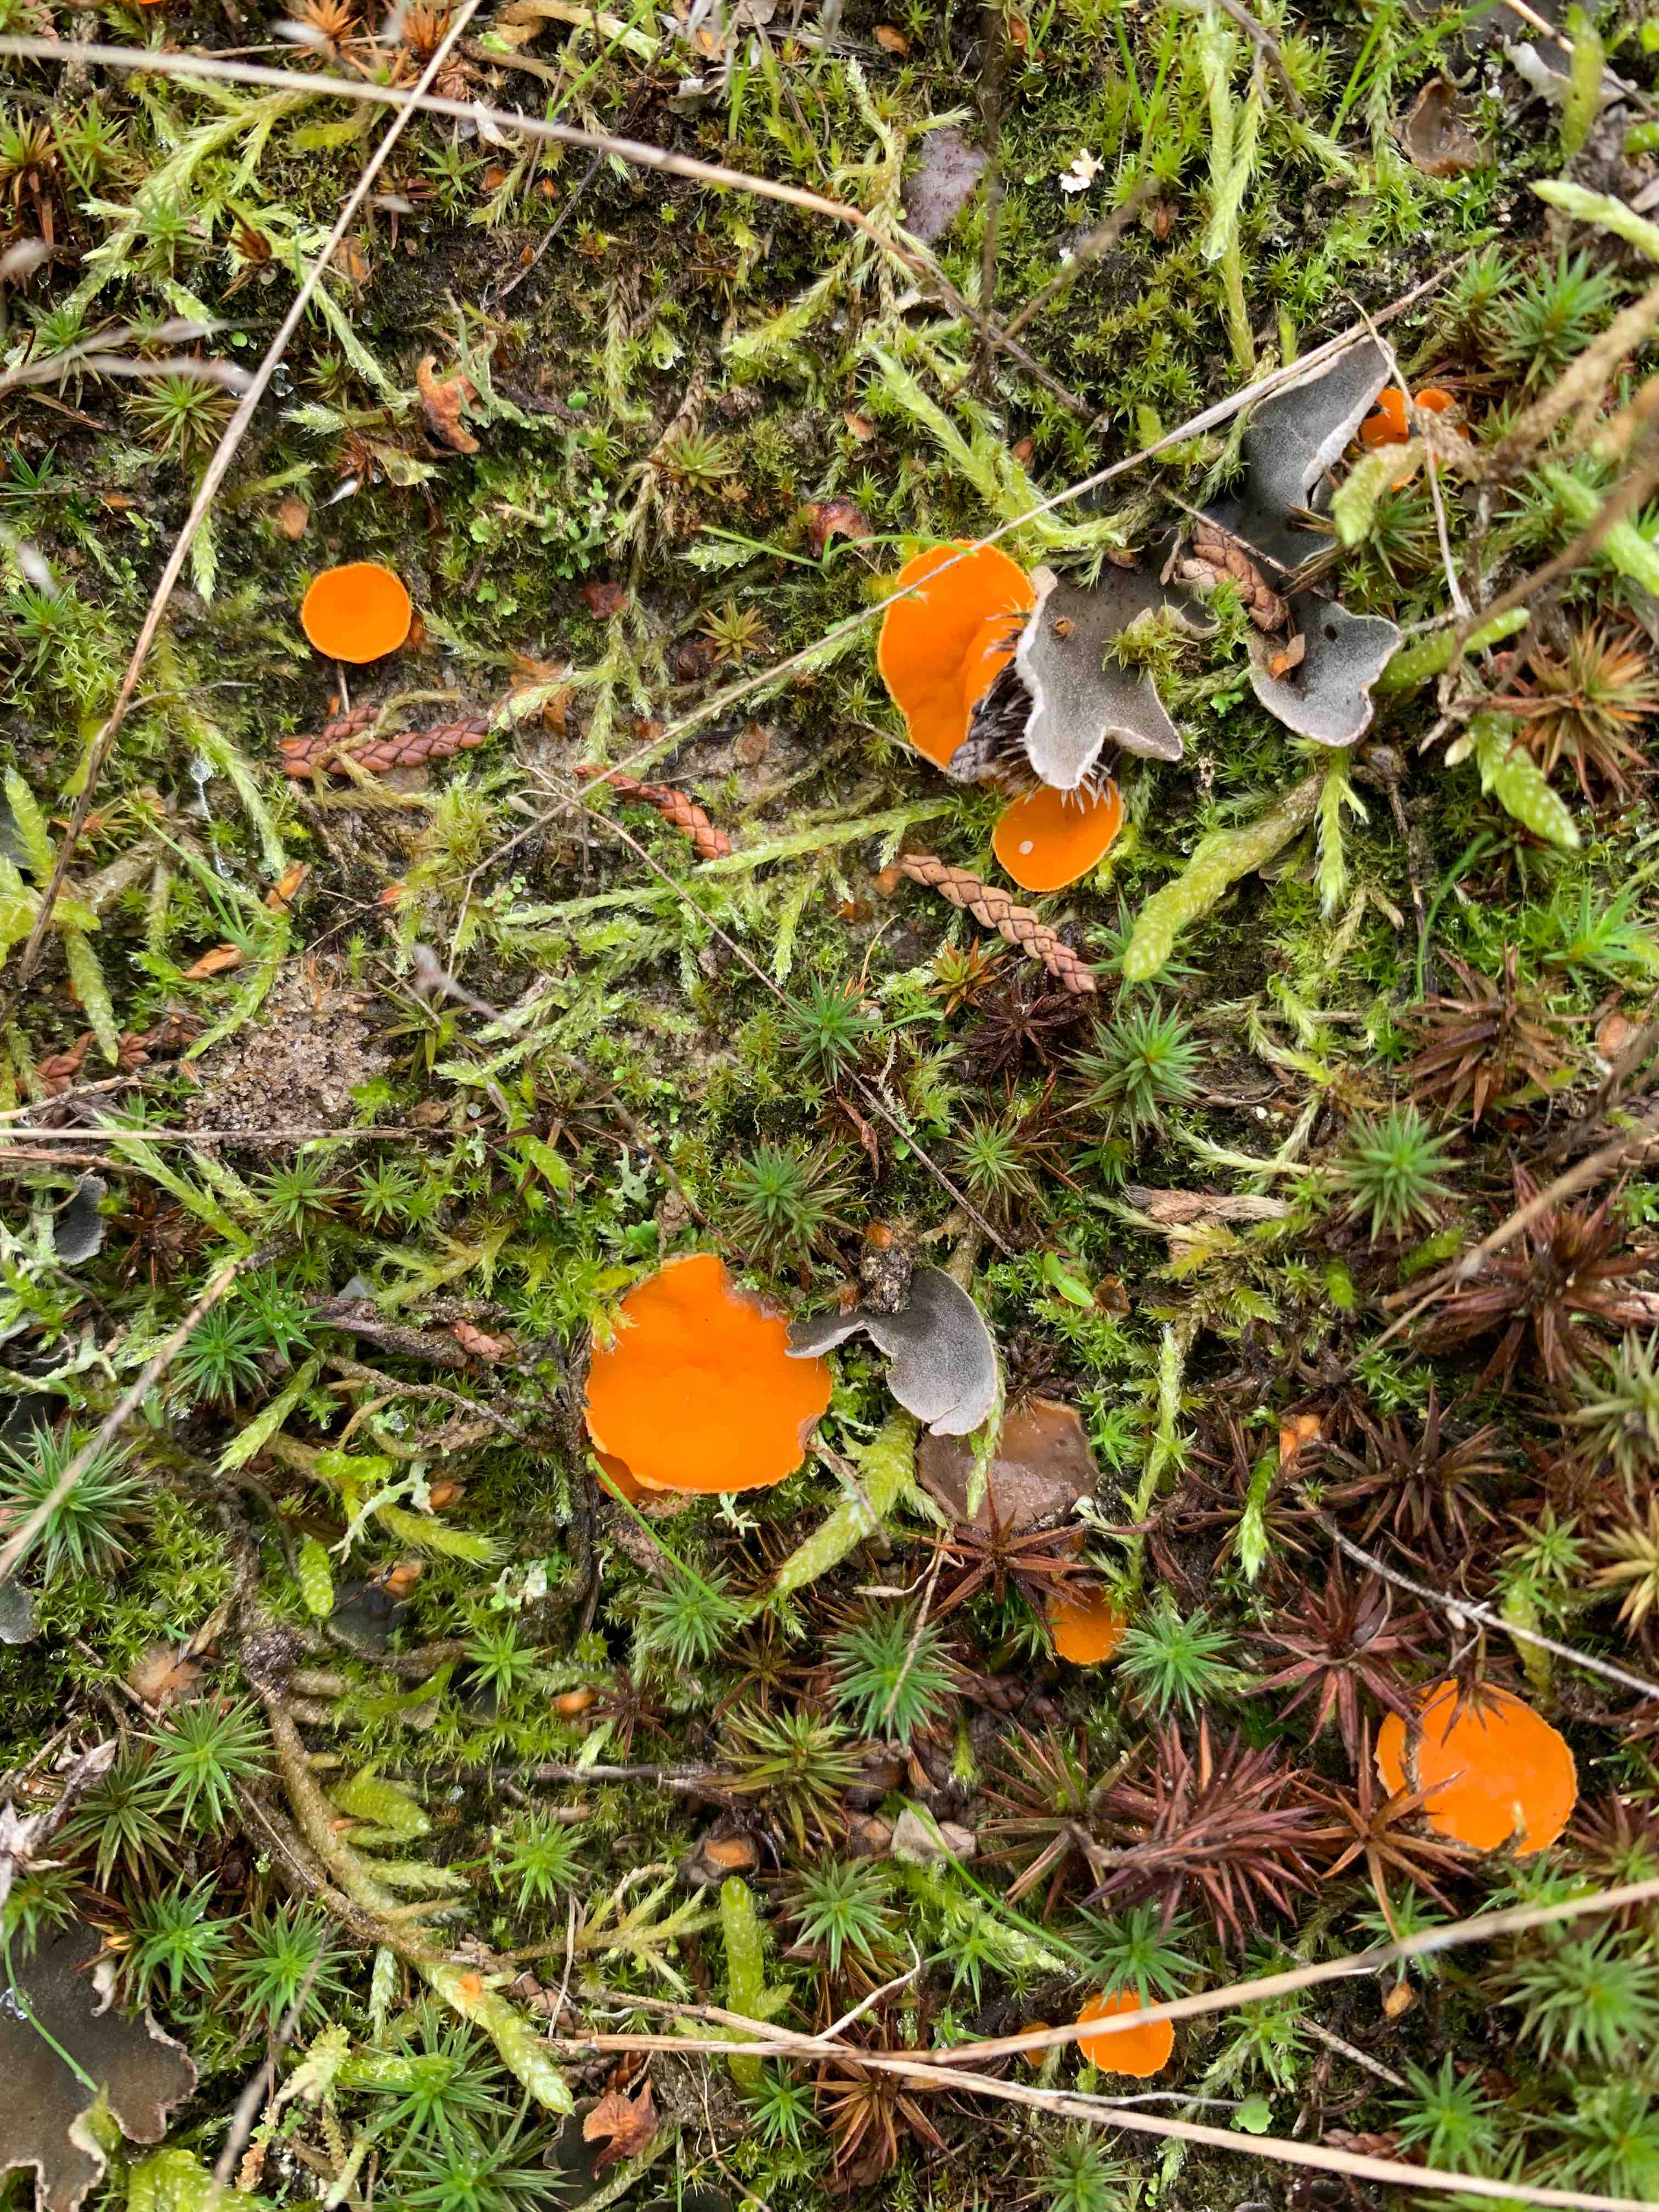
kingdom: Fungi
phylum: Ascomycota
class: Pezizomycetes
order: Pezizales
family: Pyronemataceae
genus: Neottiella
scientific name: Neottiella rutilans
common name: jomfruhår-mosbæger
